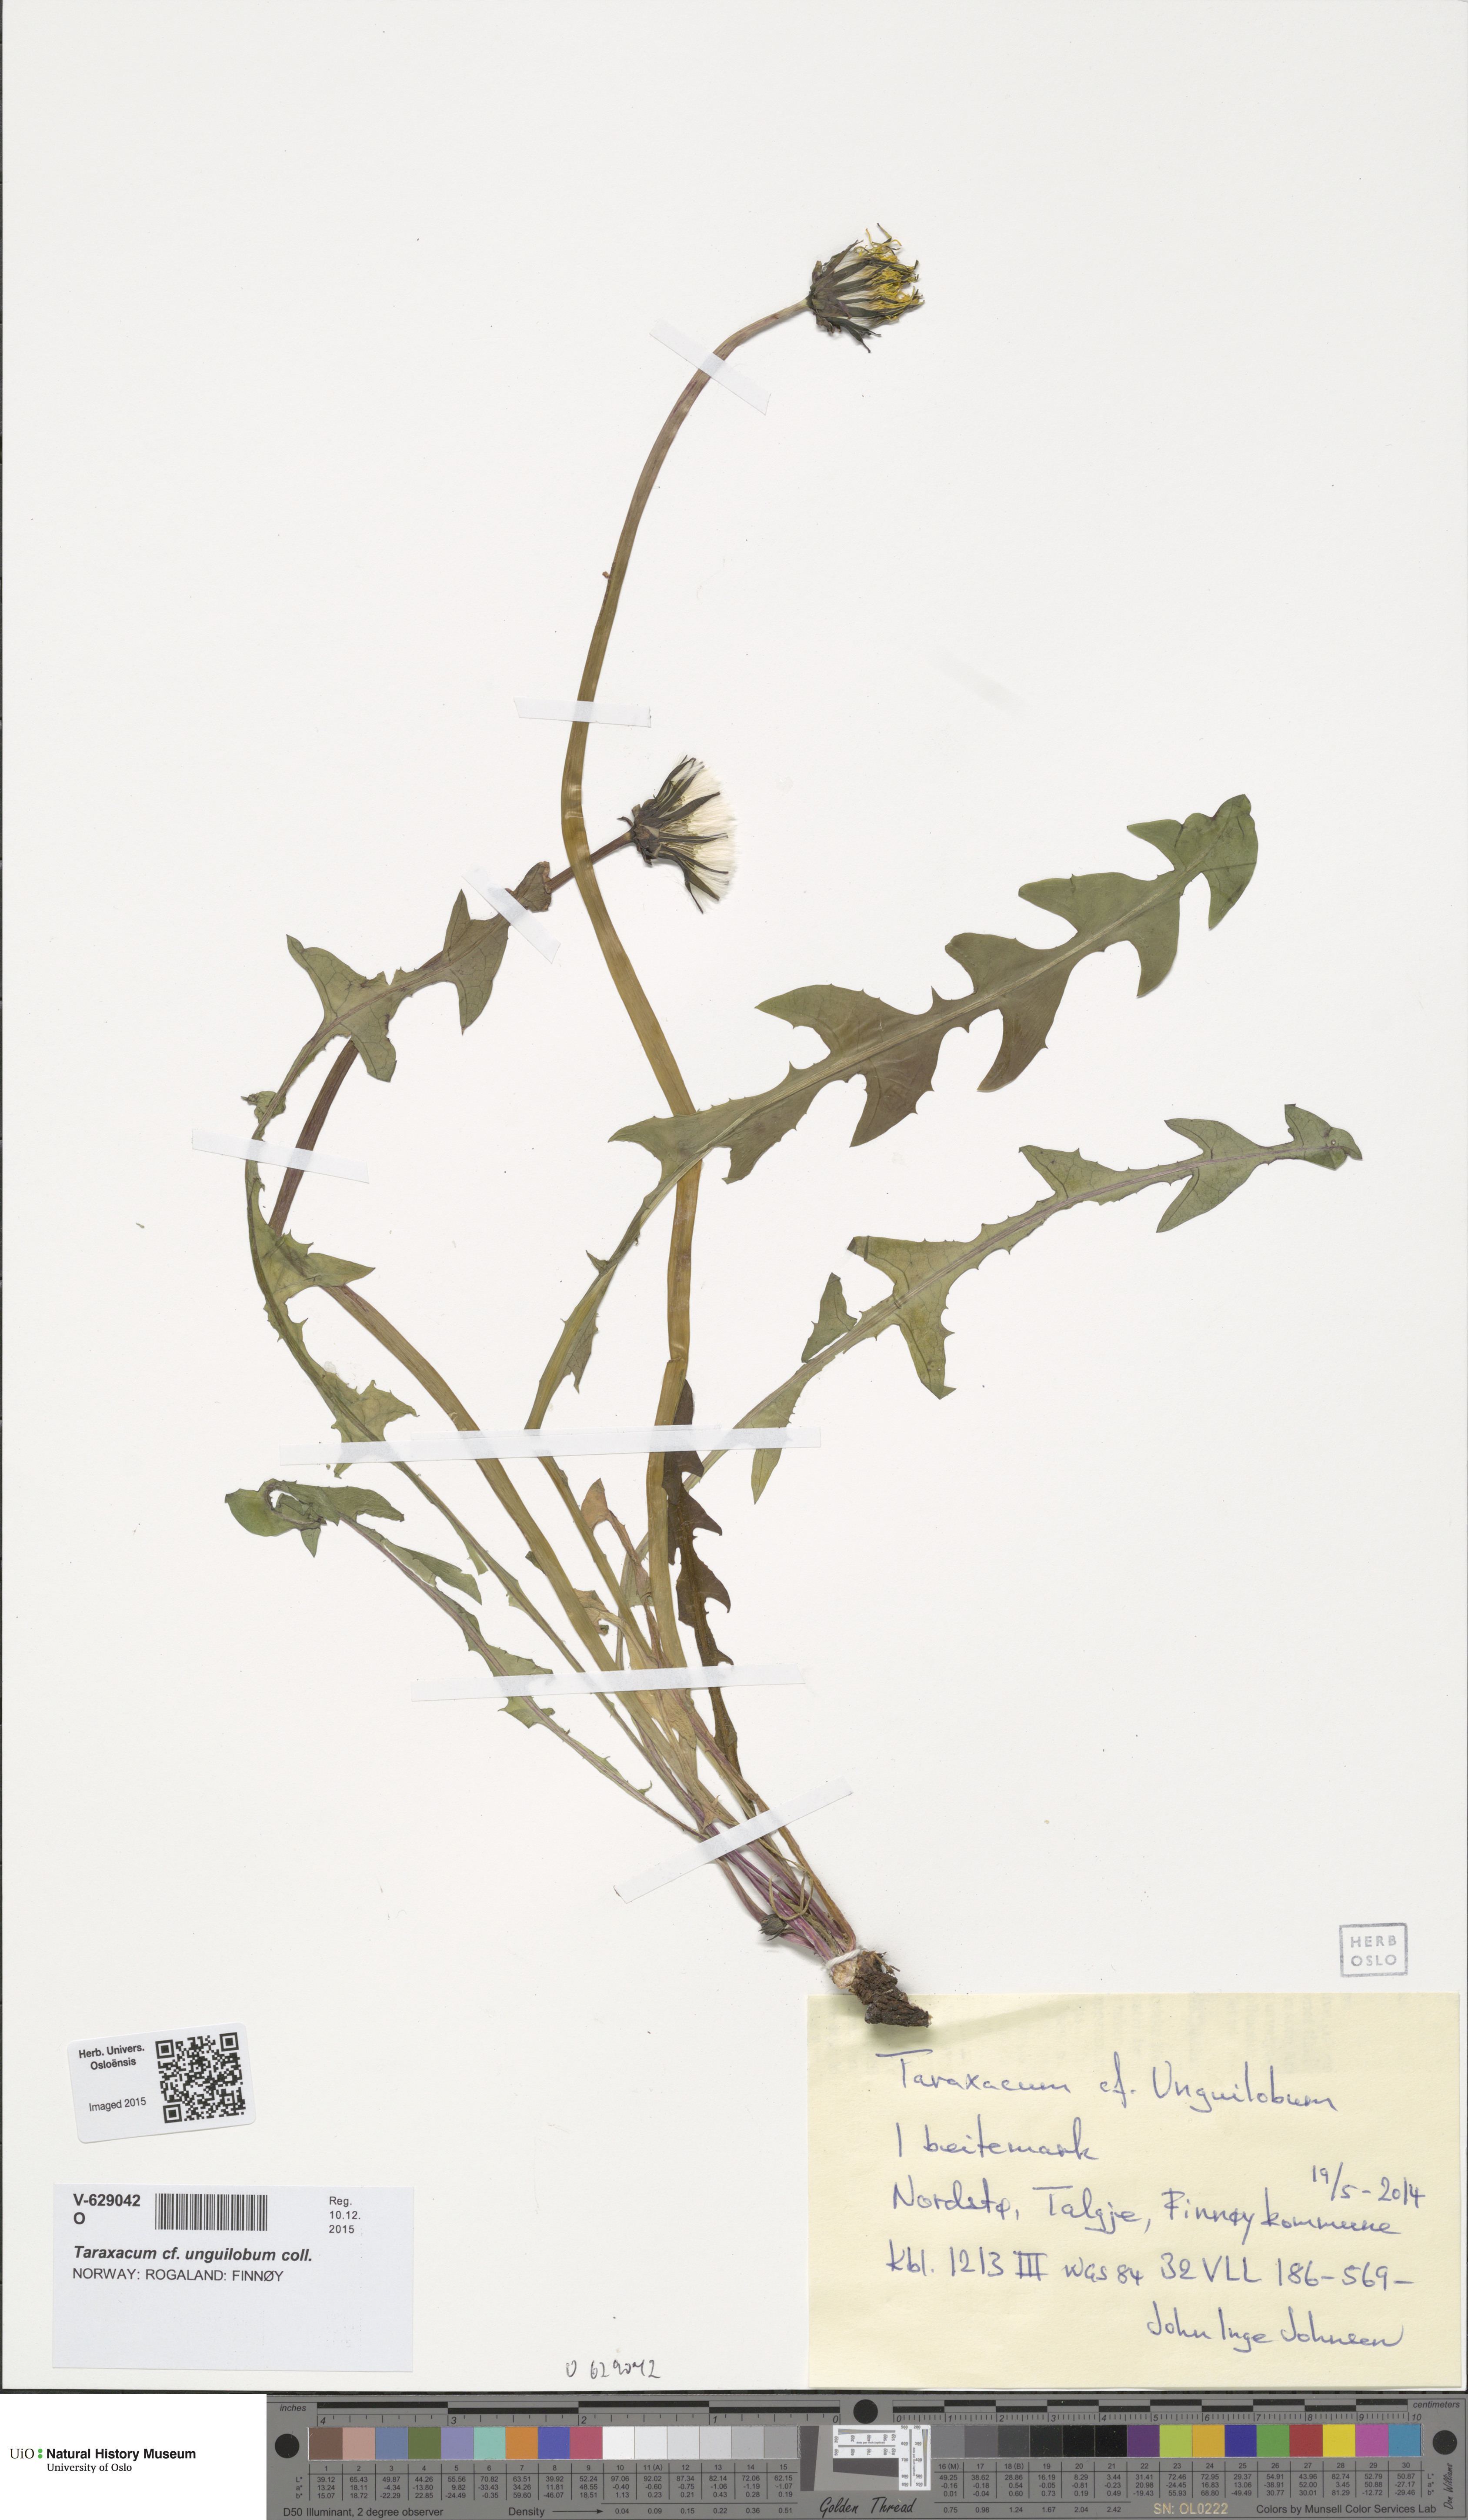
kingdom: Plantae
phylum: Tracheophyta
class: Magnoliopsida
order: Asterales
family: Asteraceae
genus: Taraxacum
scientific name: Taraxacum unguilobum
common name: Claw-lobed dandelion
